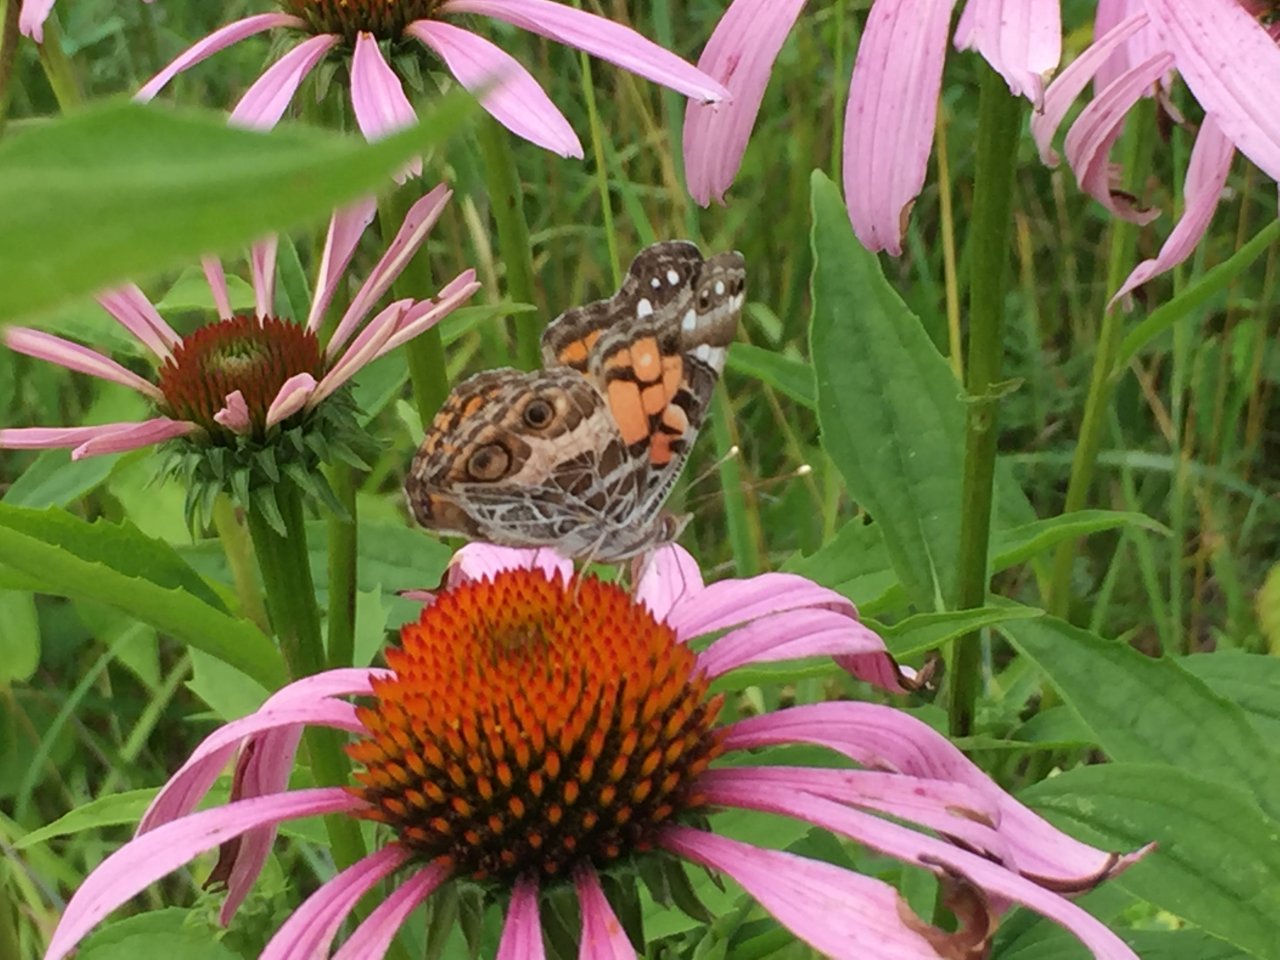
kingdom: Animalia
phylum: Arthropoda
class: Insecta
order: Lepidoptera
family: Nymphalidae
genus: Vanessa
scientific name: Vanessa virginiensis
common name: American Lady
